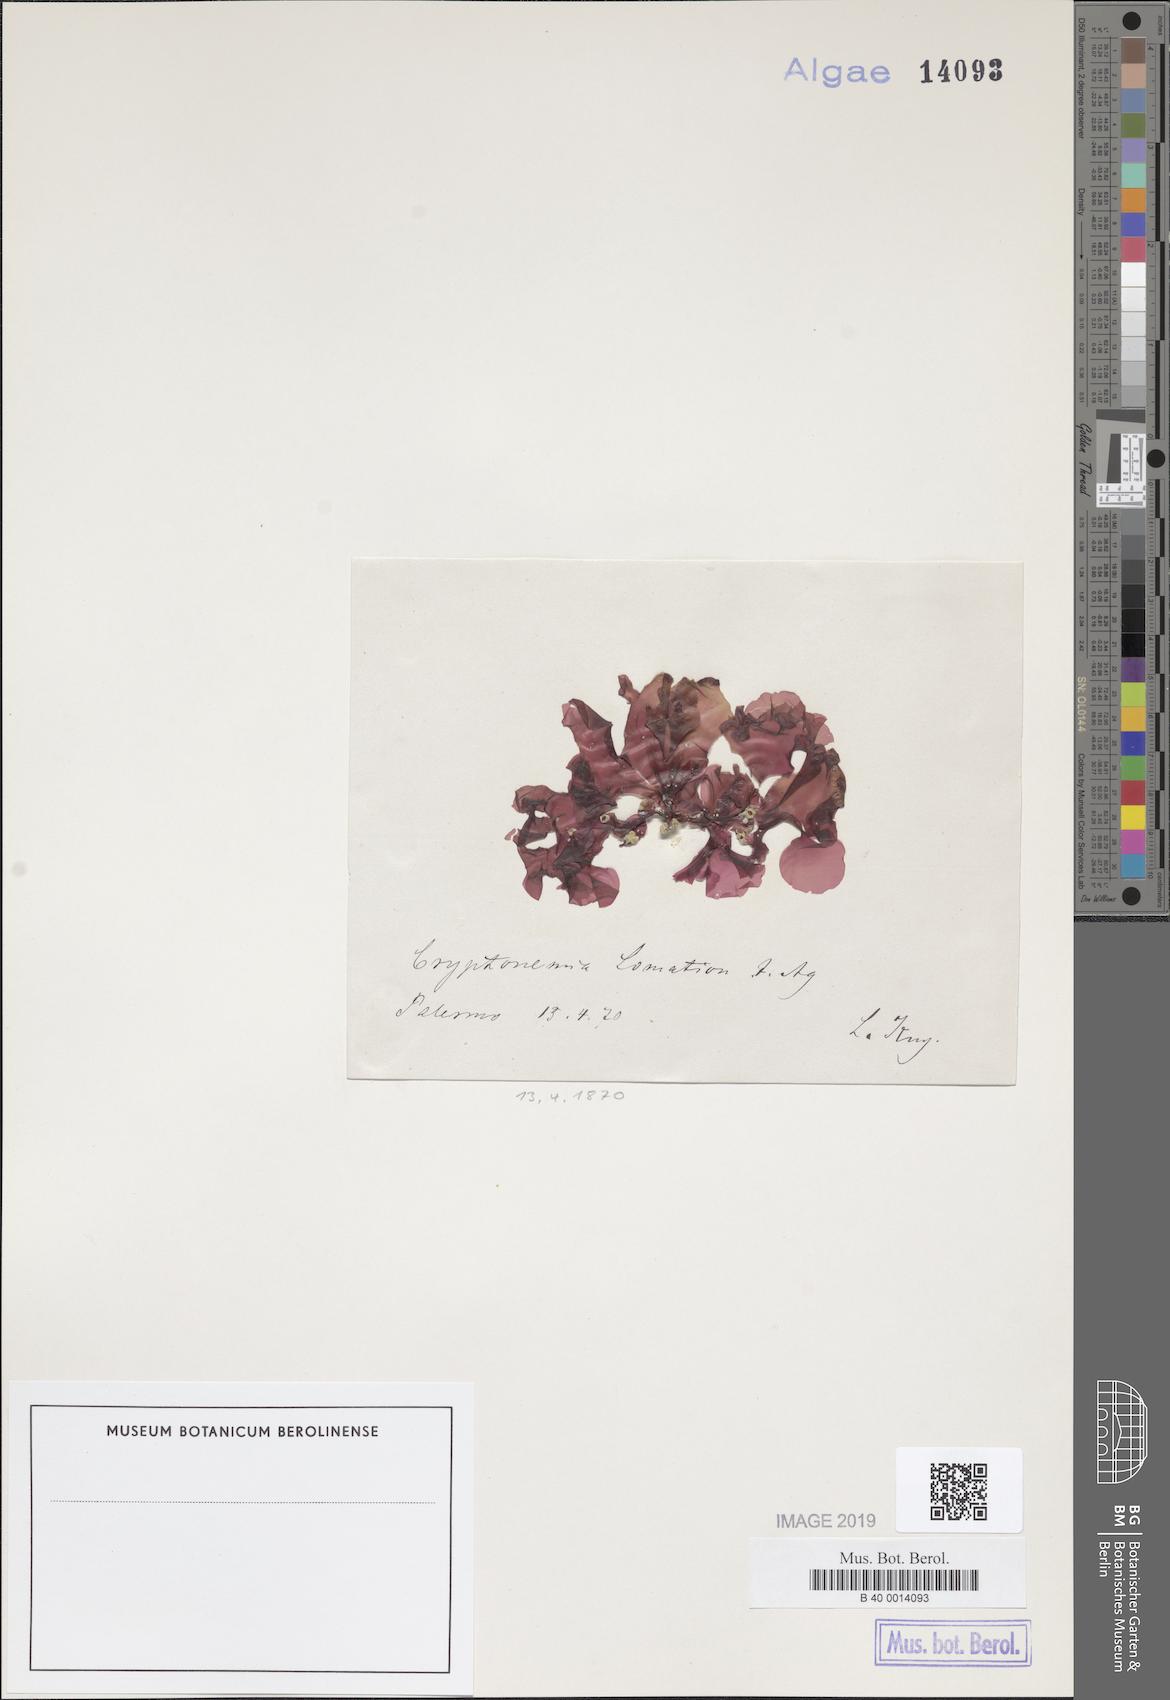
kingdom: Plantae
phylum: Rhodophyta
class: Florideophyceae
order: Halymeniales
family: Halymeniaceae
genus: Cryptonemia
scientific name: Cryptonemia lomation
